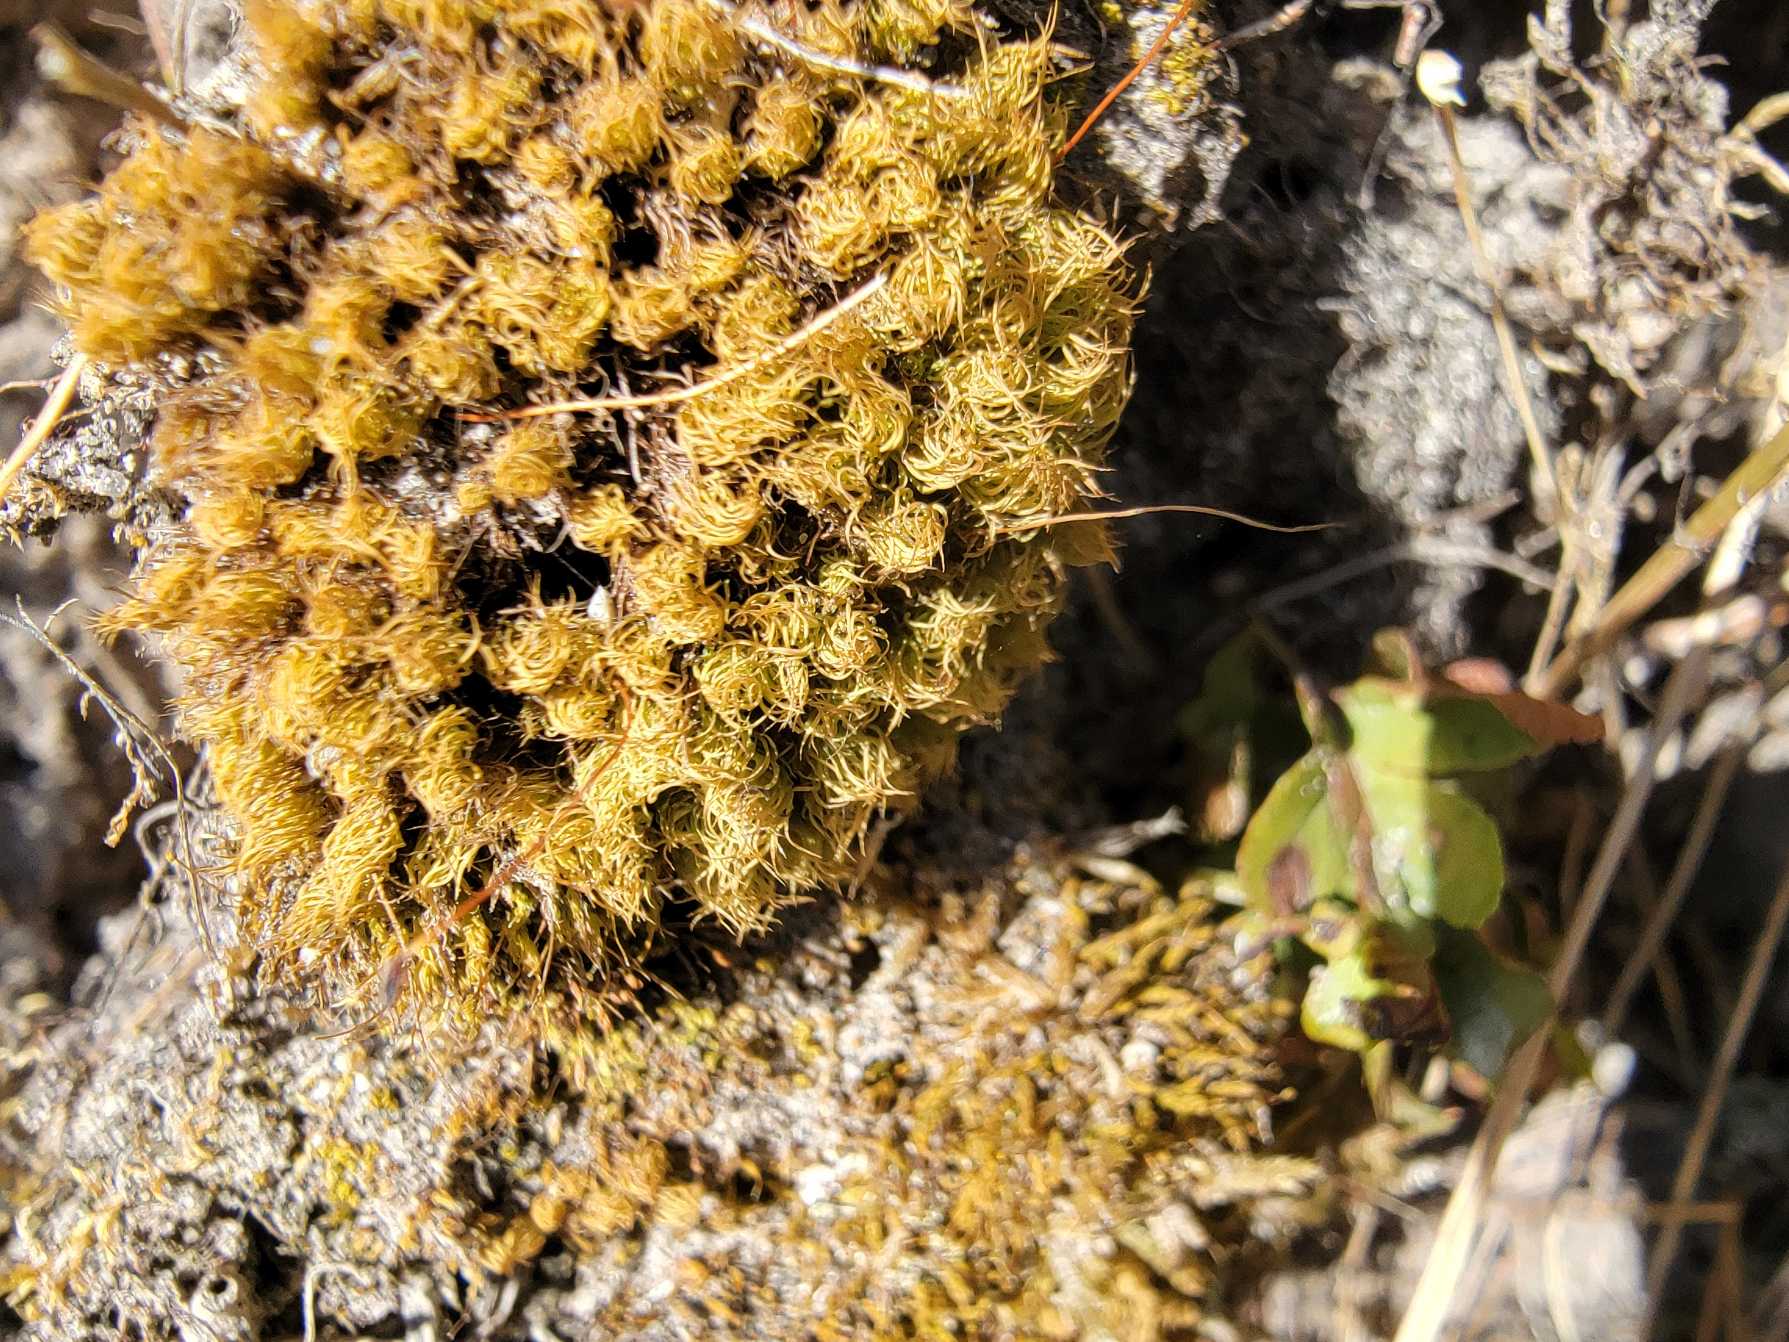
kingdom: Plantae
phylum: Bryophyta
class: Bryopsida
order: Bartramiales
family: Bartramiaceae
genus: Bartramia
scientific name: Bartramia pomiformis
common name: Gulgrøn kuglekapsel
